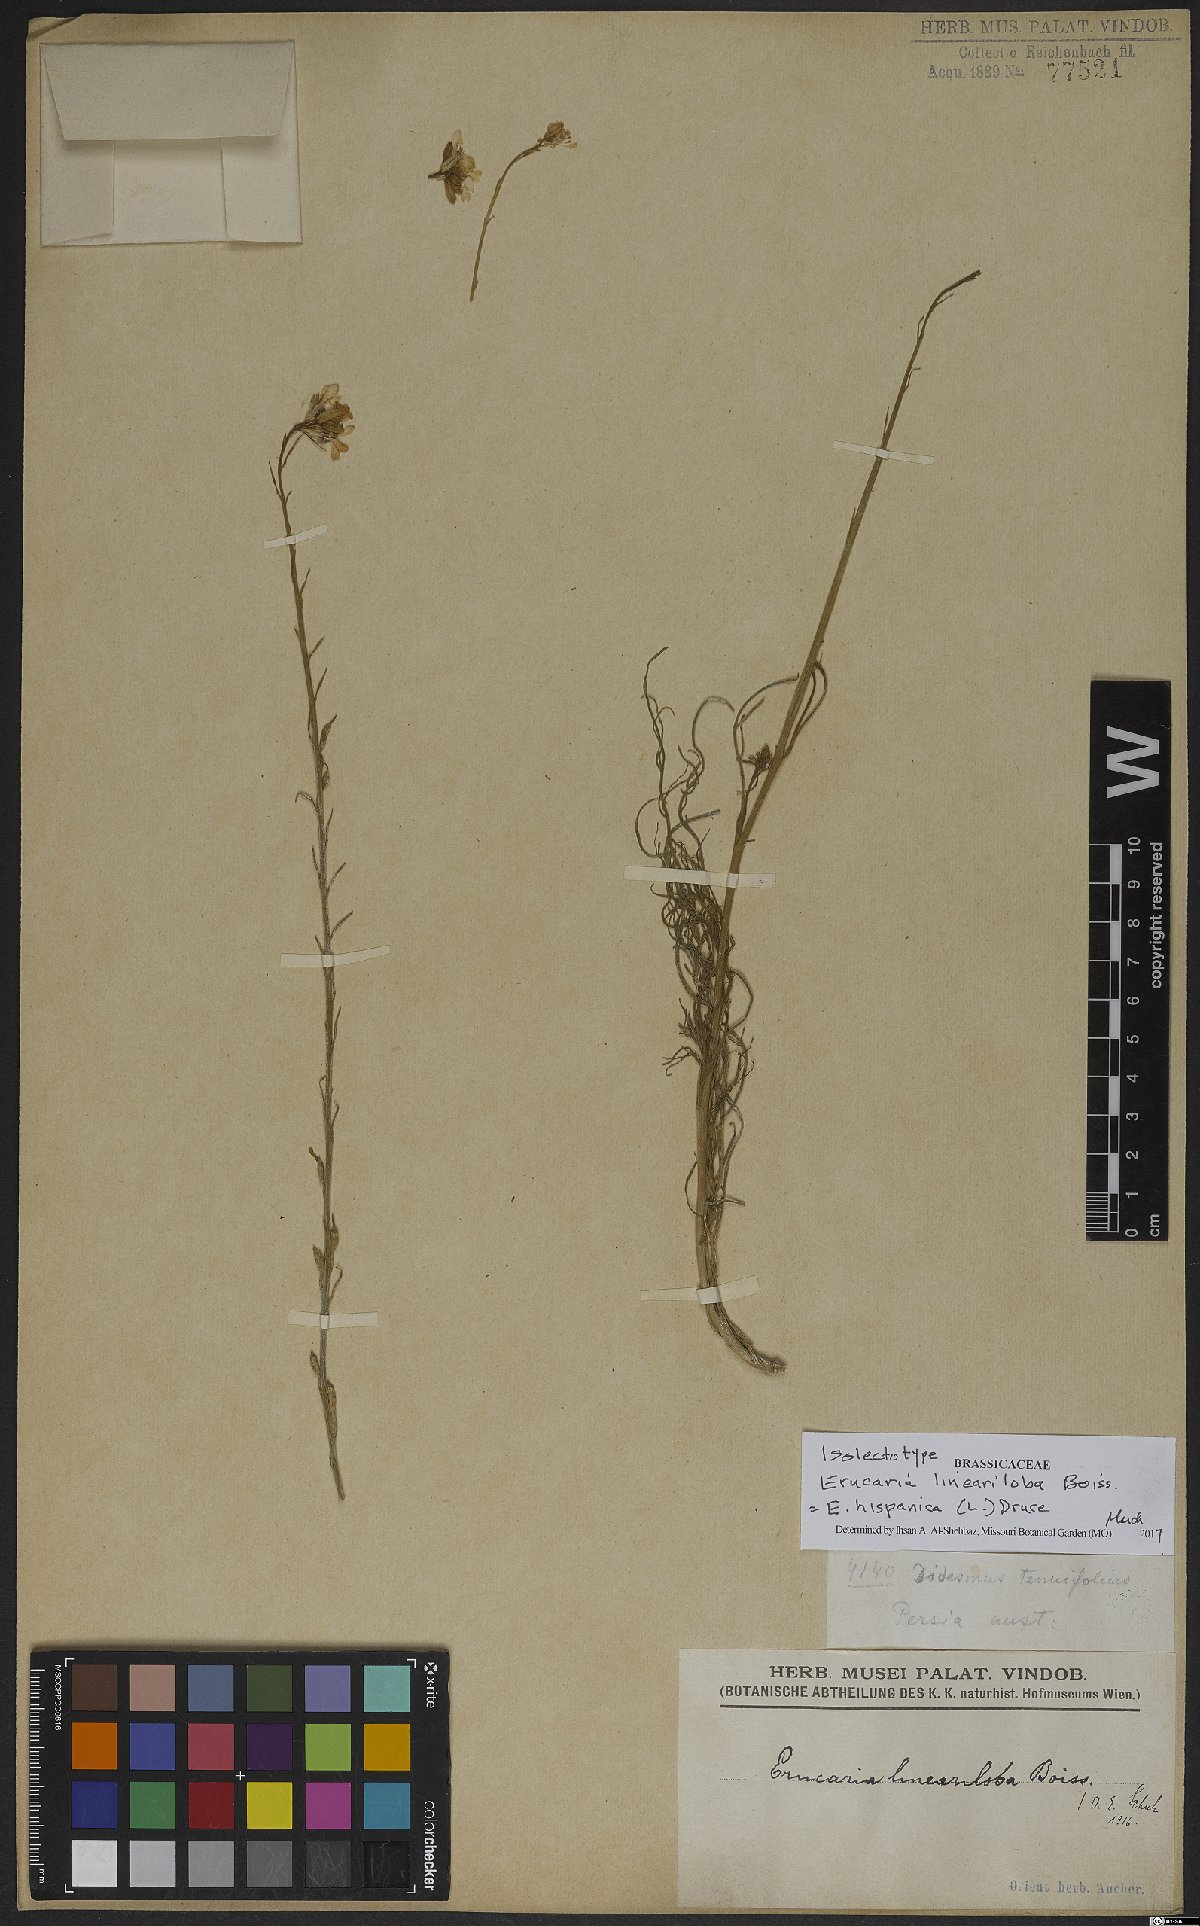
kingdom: Plantae
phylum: Tracheophyta
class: Magnoliopsida
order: Brassicales
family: Brassicaceae
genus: Erucaria
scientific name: Erucaria hispanica
